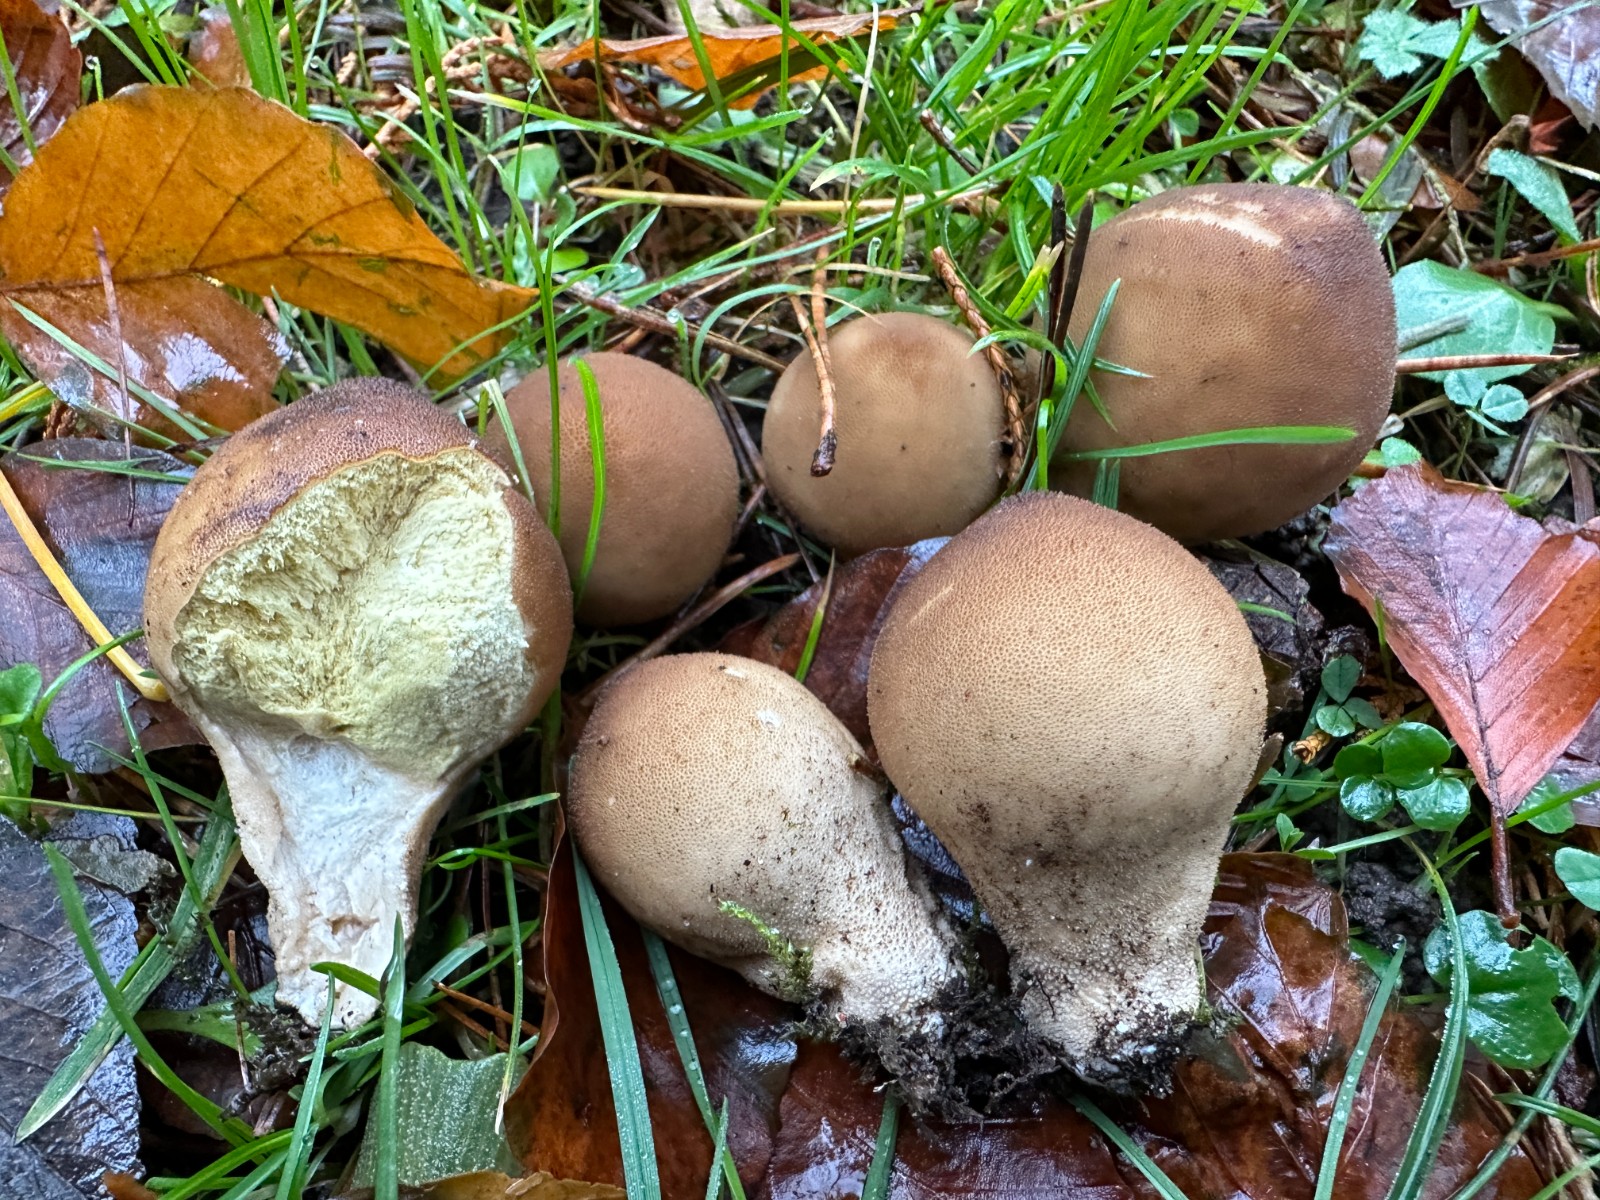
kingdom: Fungi
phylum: Basidiomycota
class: Agaricomycetes
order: Agaricales
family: Lycoperdaceae
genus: Apioperdon
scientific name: Apioperdon pyriforme
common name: pære-støvbold
